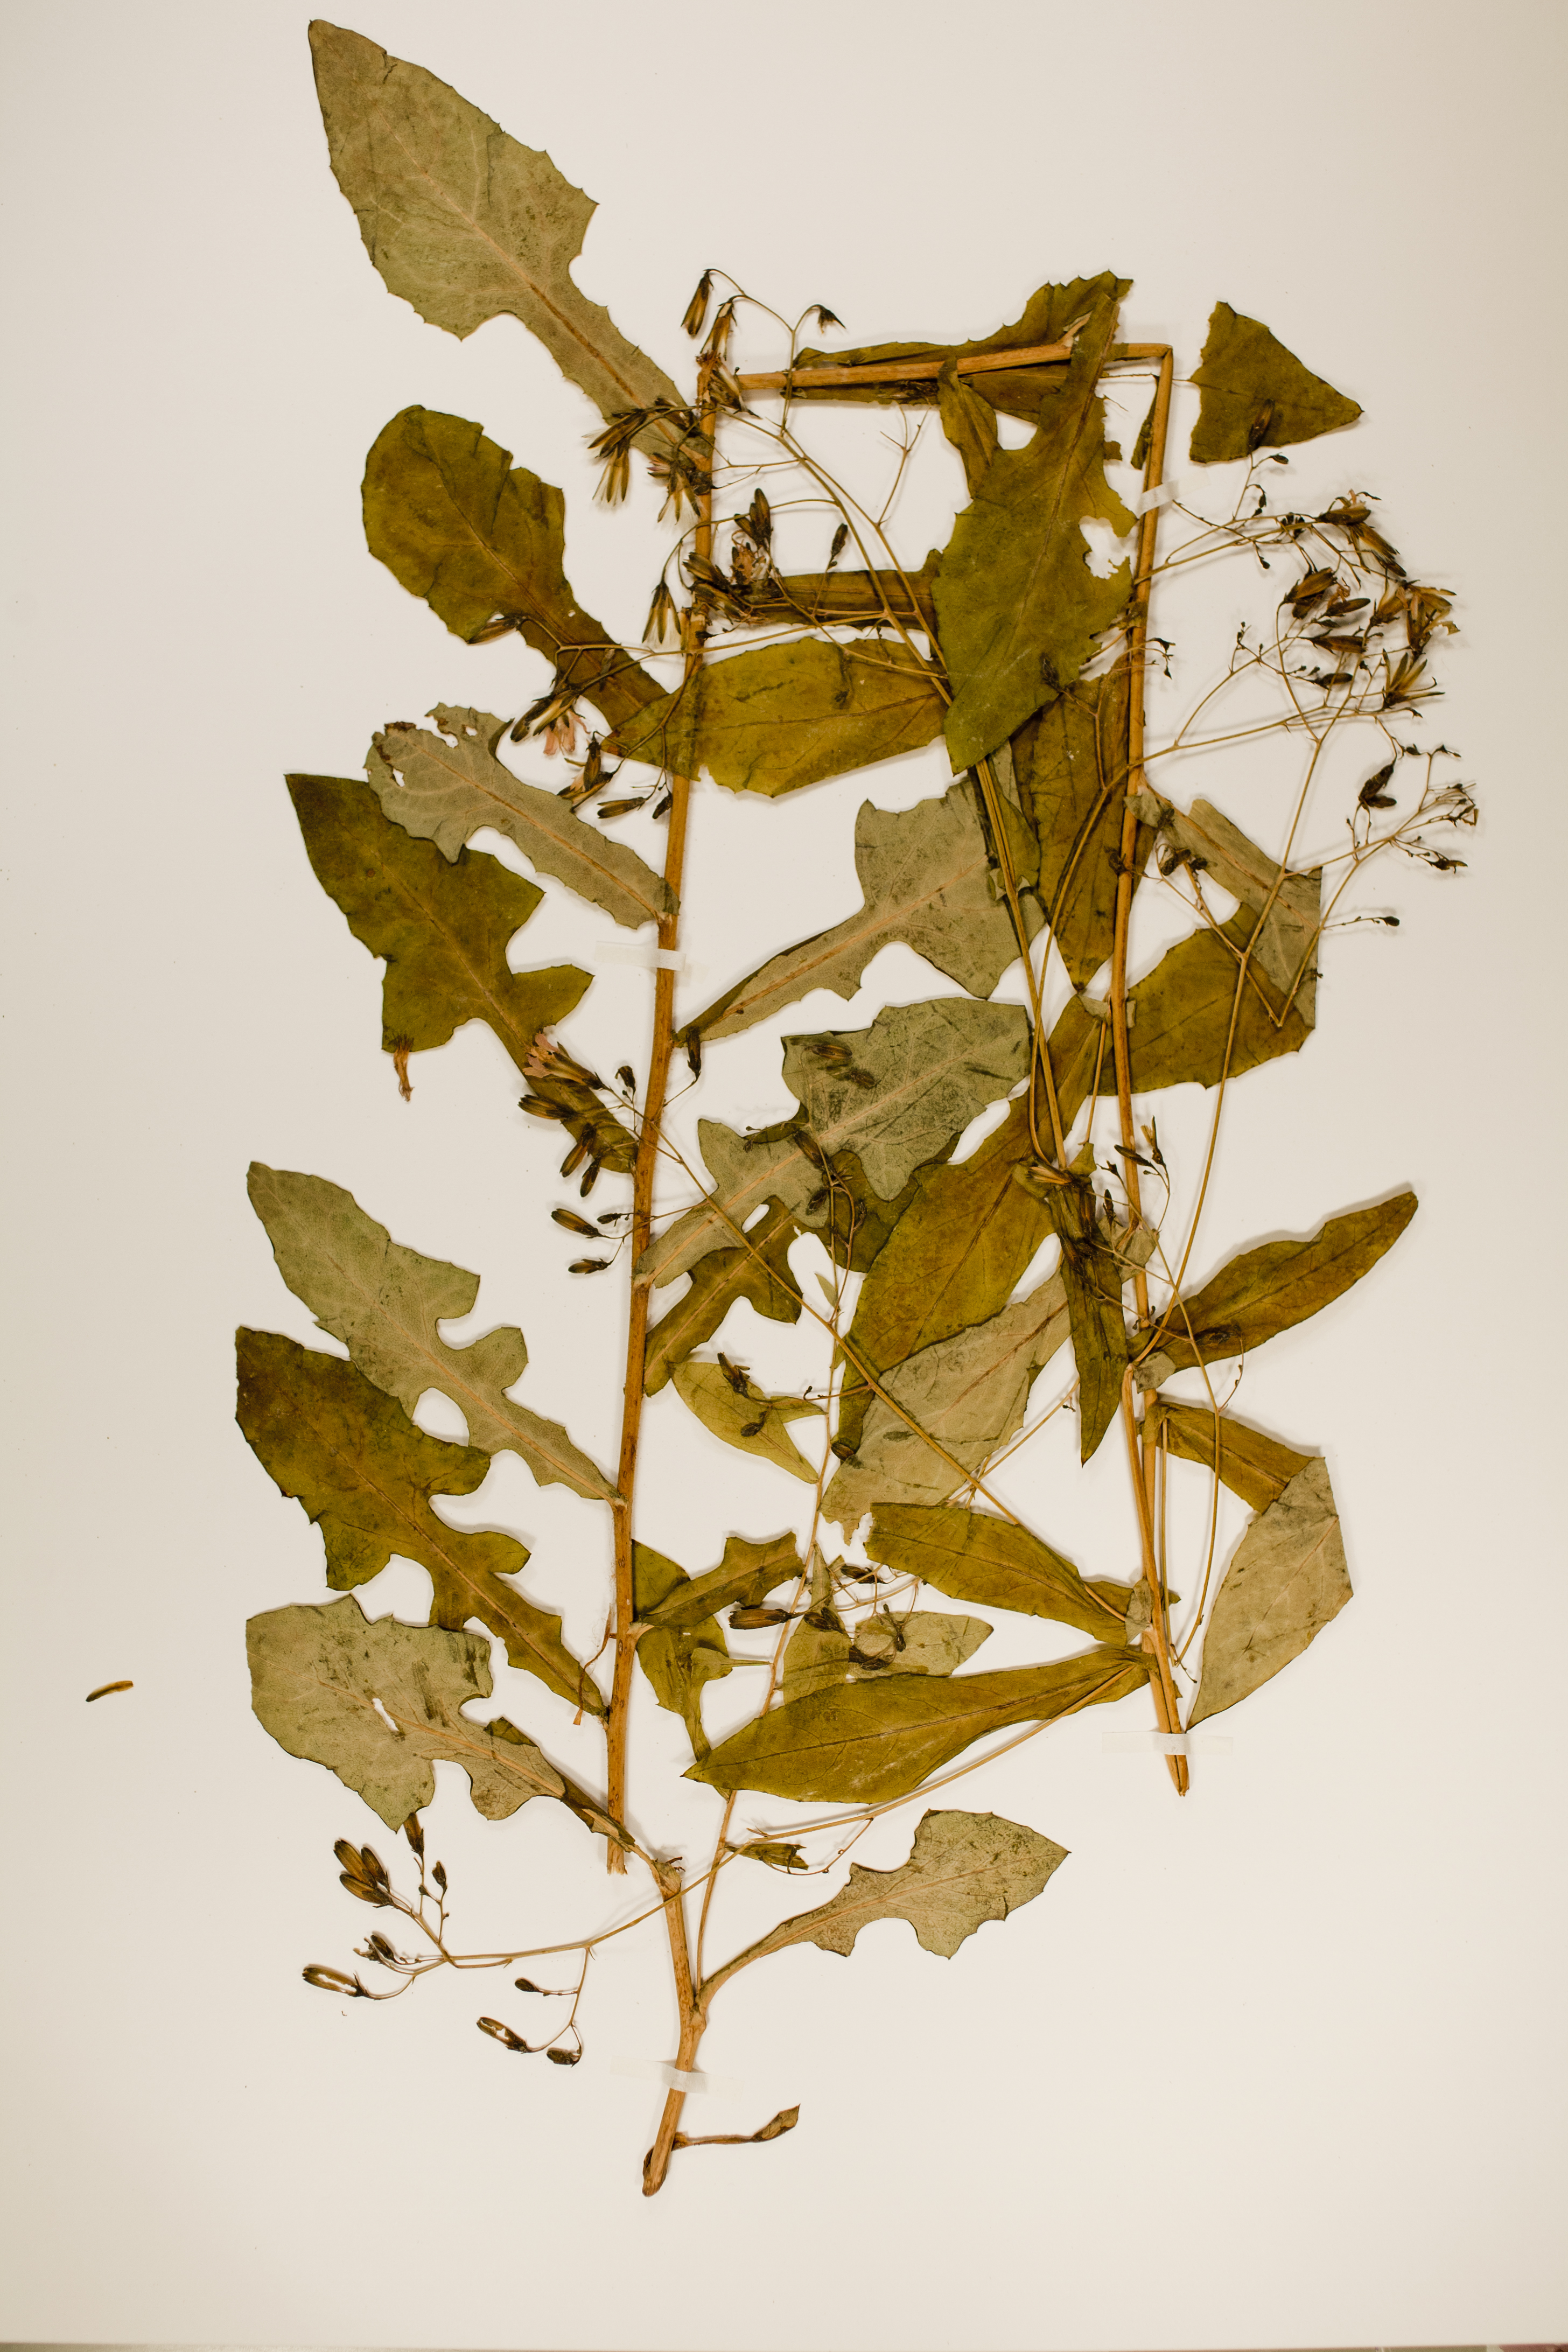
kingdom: Plantae
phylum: Tracheophyta
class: Magnoliopsida
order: Asterales
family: Asteraceae
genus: Prenanthes
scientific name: Prenanthes purpurea
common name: Purple lettuce
